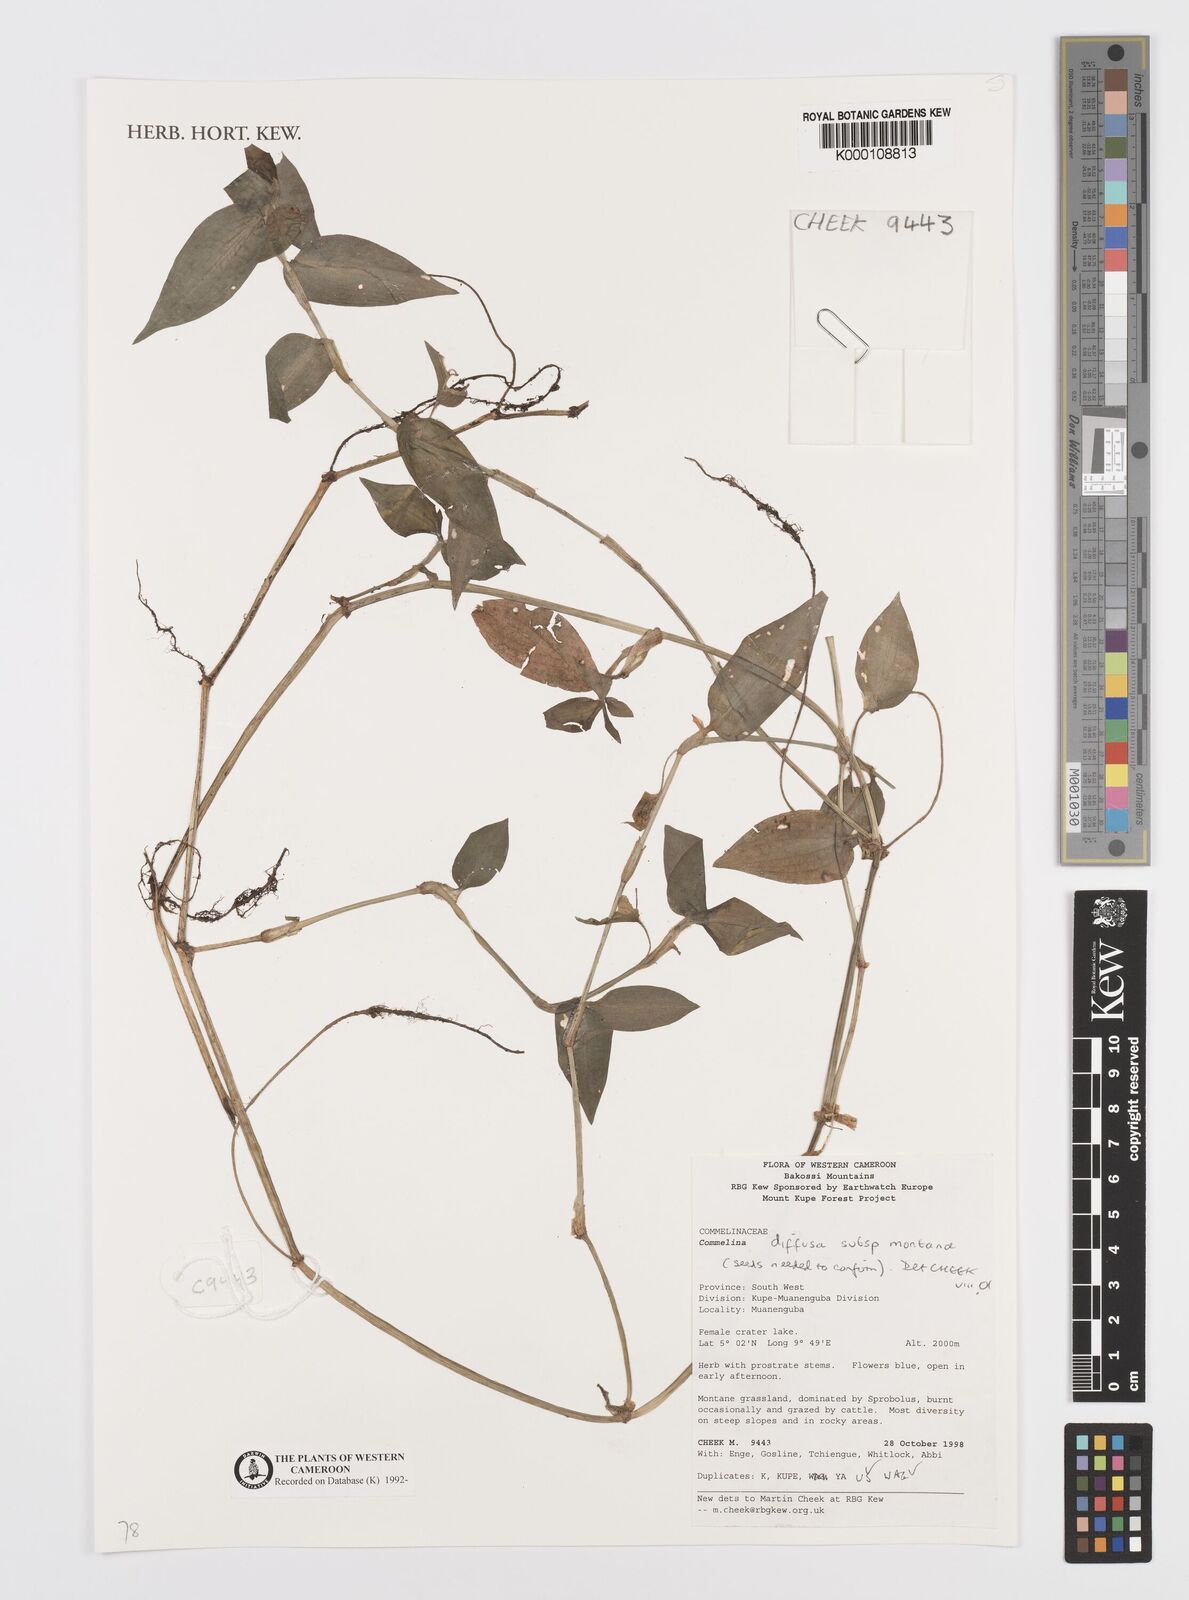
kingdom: Plantae
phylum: Tracheophyta
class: Liliopsida
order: Commelinales
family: Commelinaceae
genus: Commelina
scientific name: Commelina diffusa
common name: Climbing dayflower
